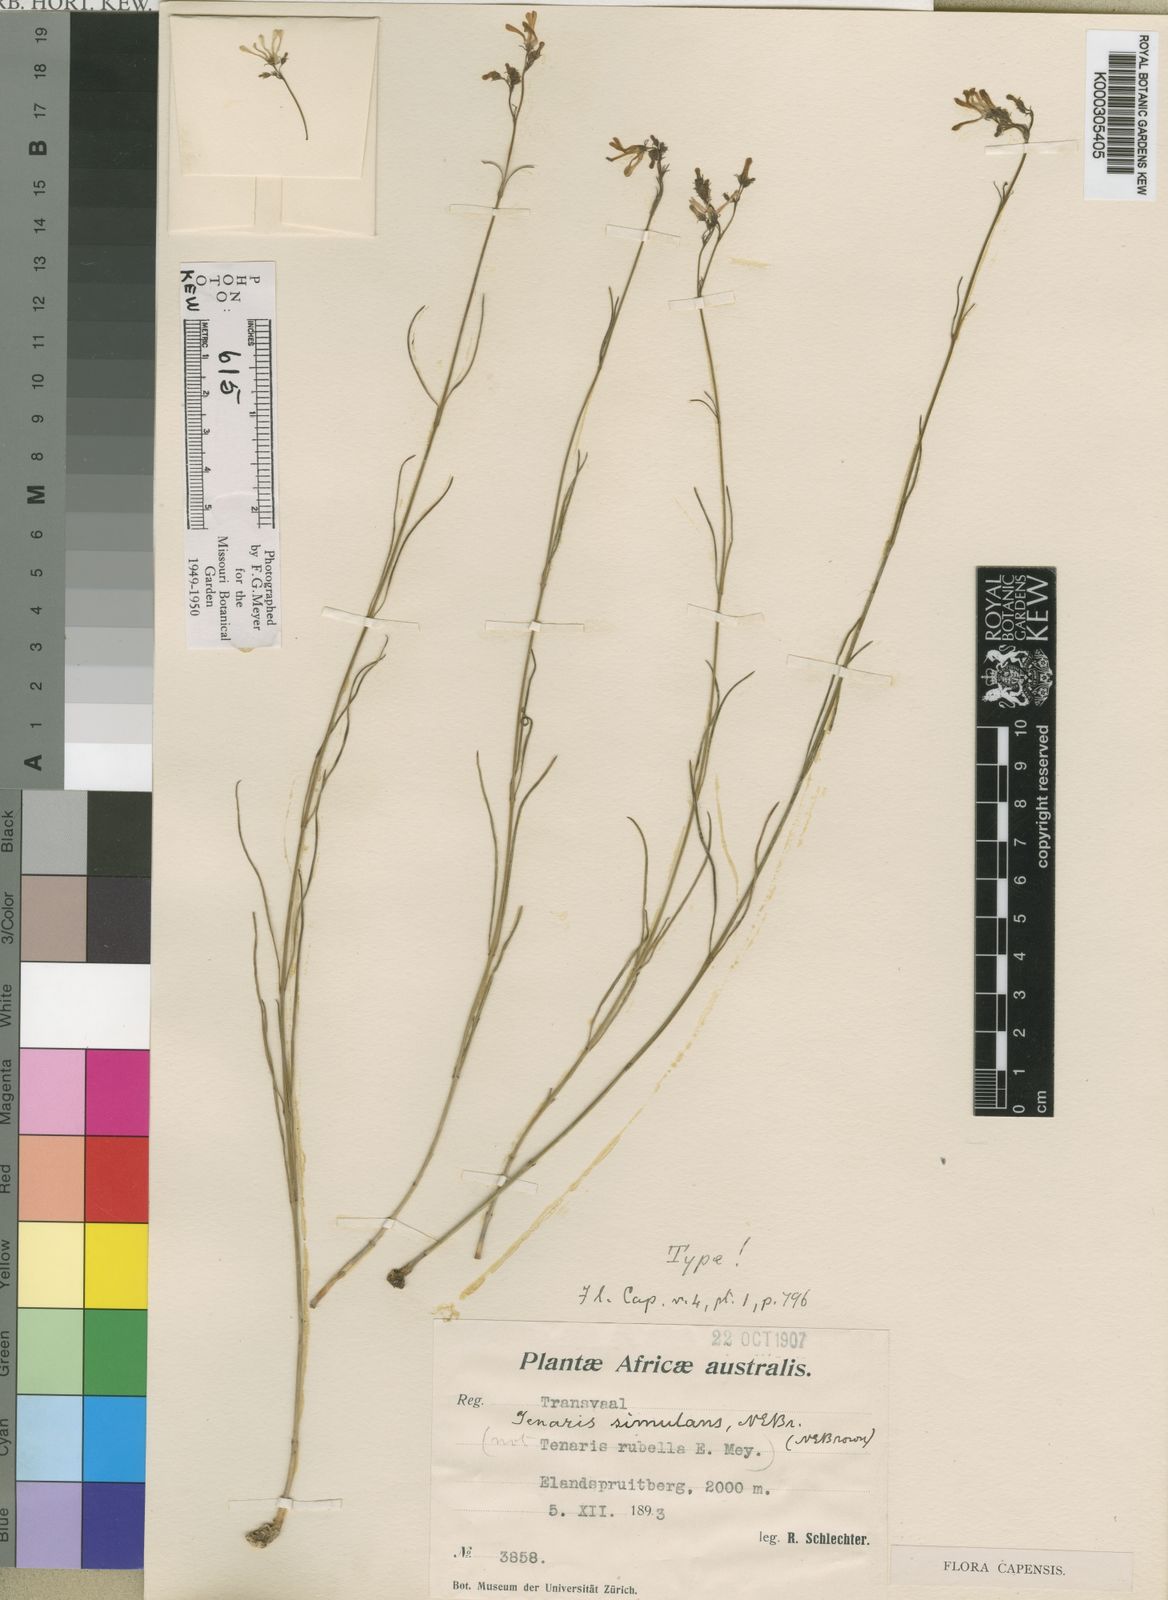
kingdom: Plantae
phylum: Tracheophyta
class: Magnoliopsida
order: Gentianales
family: Apocynaceae
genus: Ceropegia
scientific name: Ceropegia rubella
